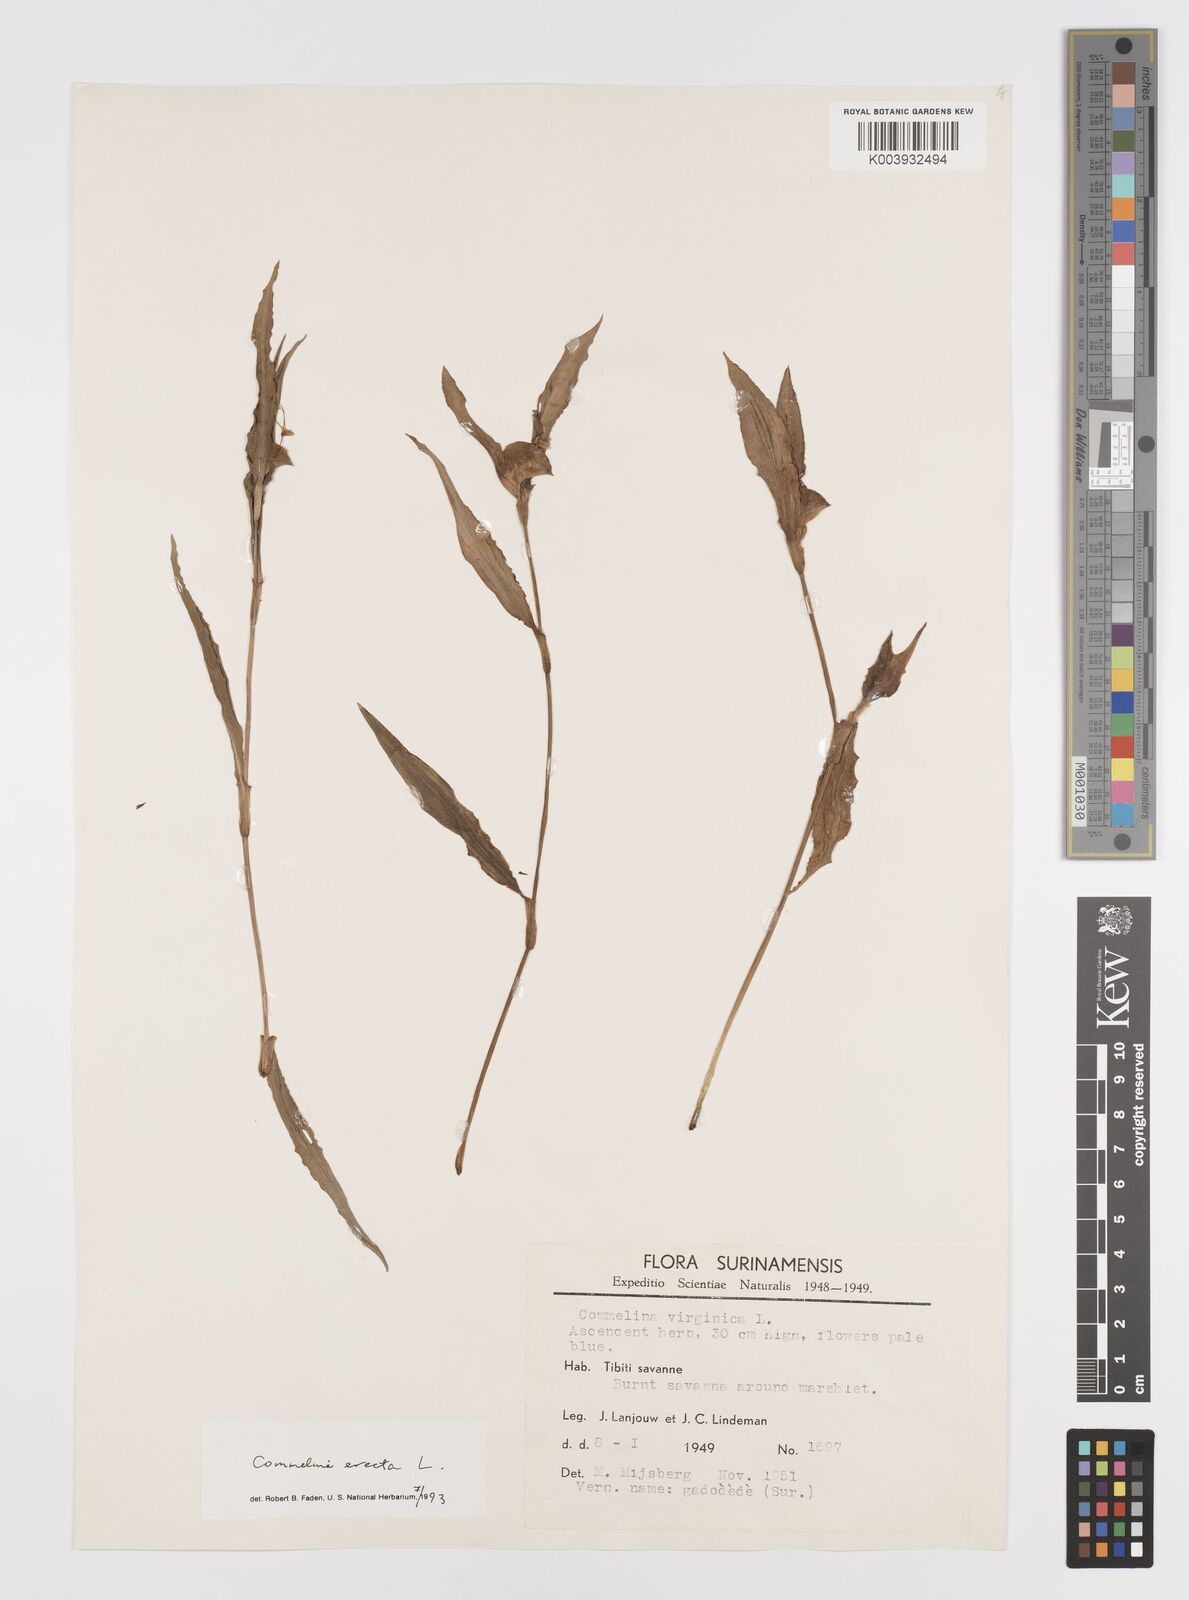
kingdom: Plantae
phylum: Tracheophyta
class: Liliopsida
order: Commelinales
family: Commelinaceae
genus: Commelina
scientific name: Commelina erecta
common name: Blousel blommetjie
